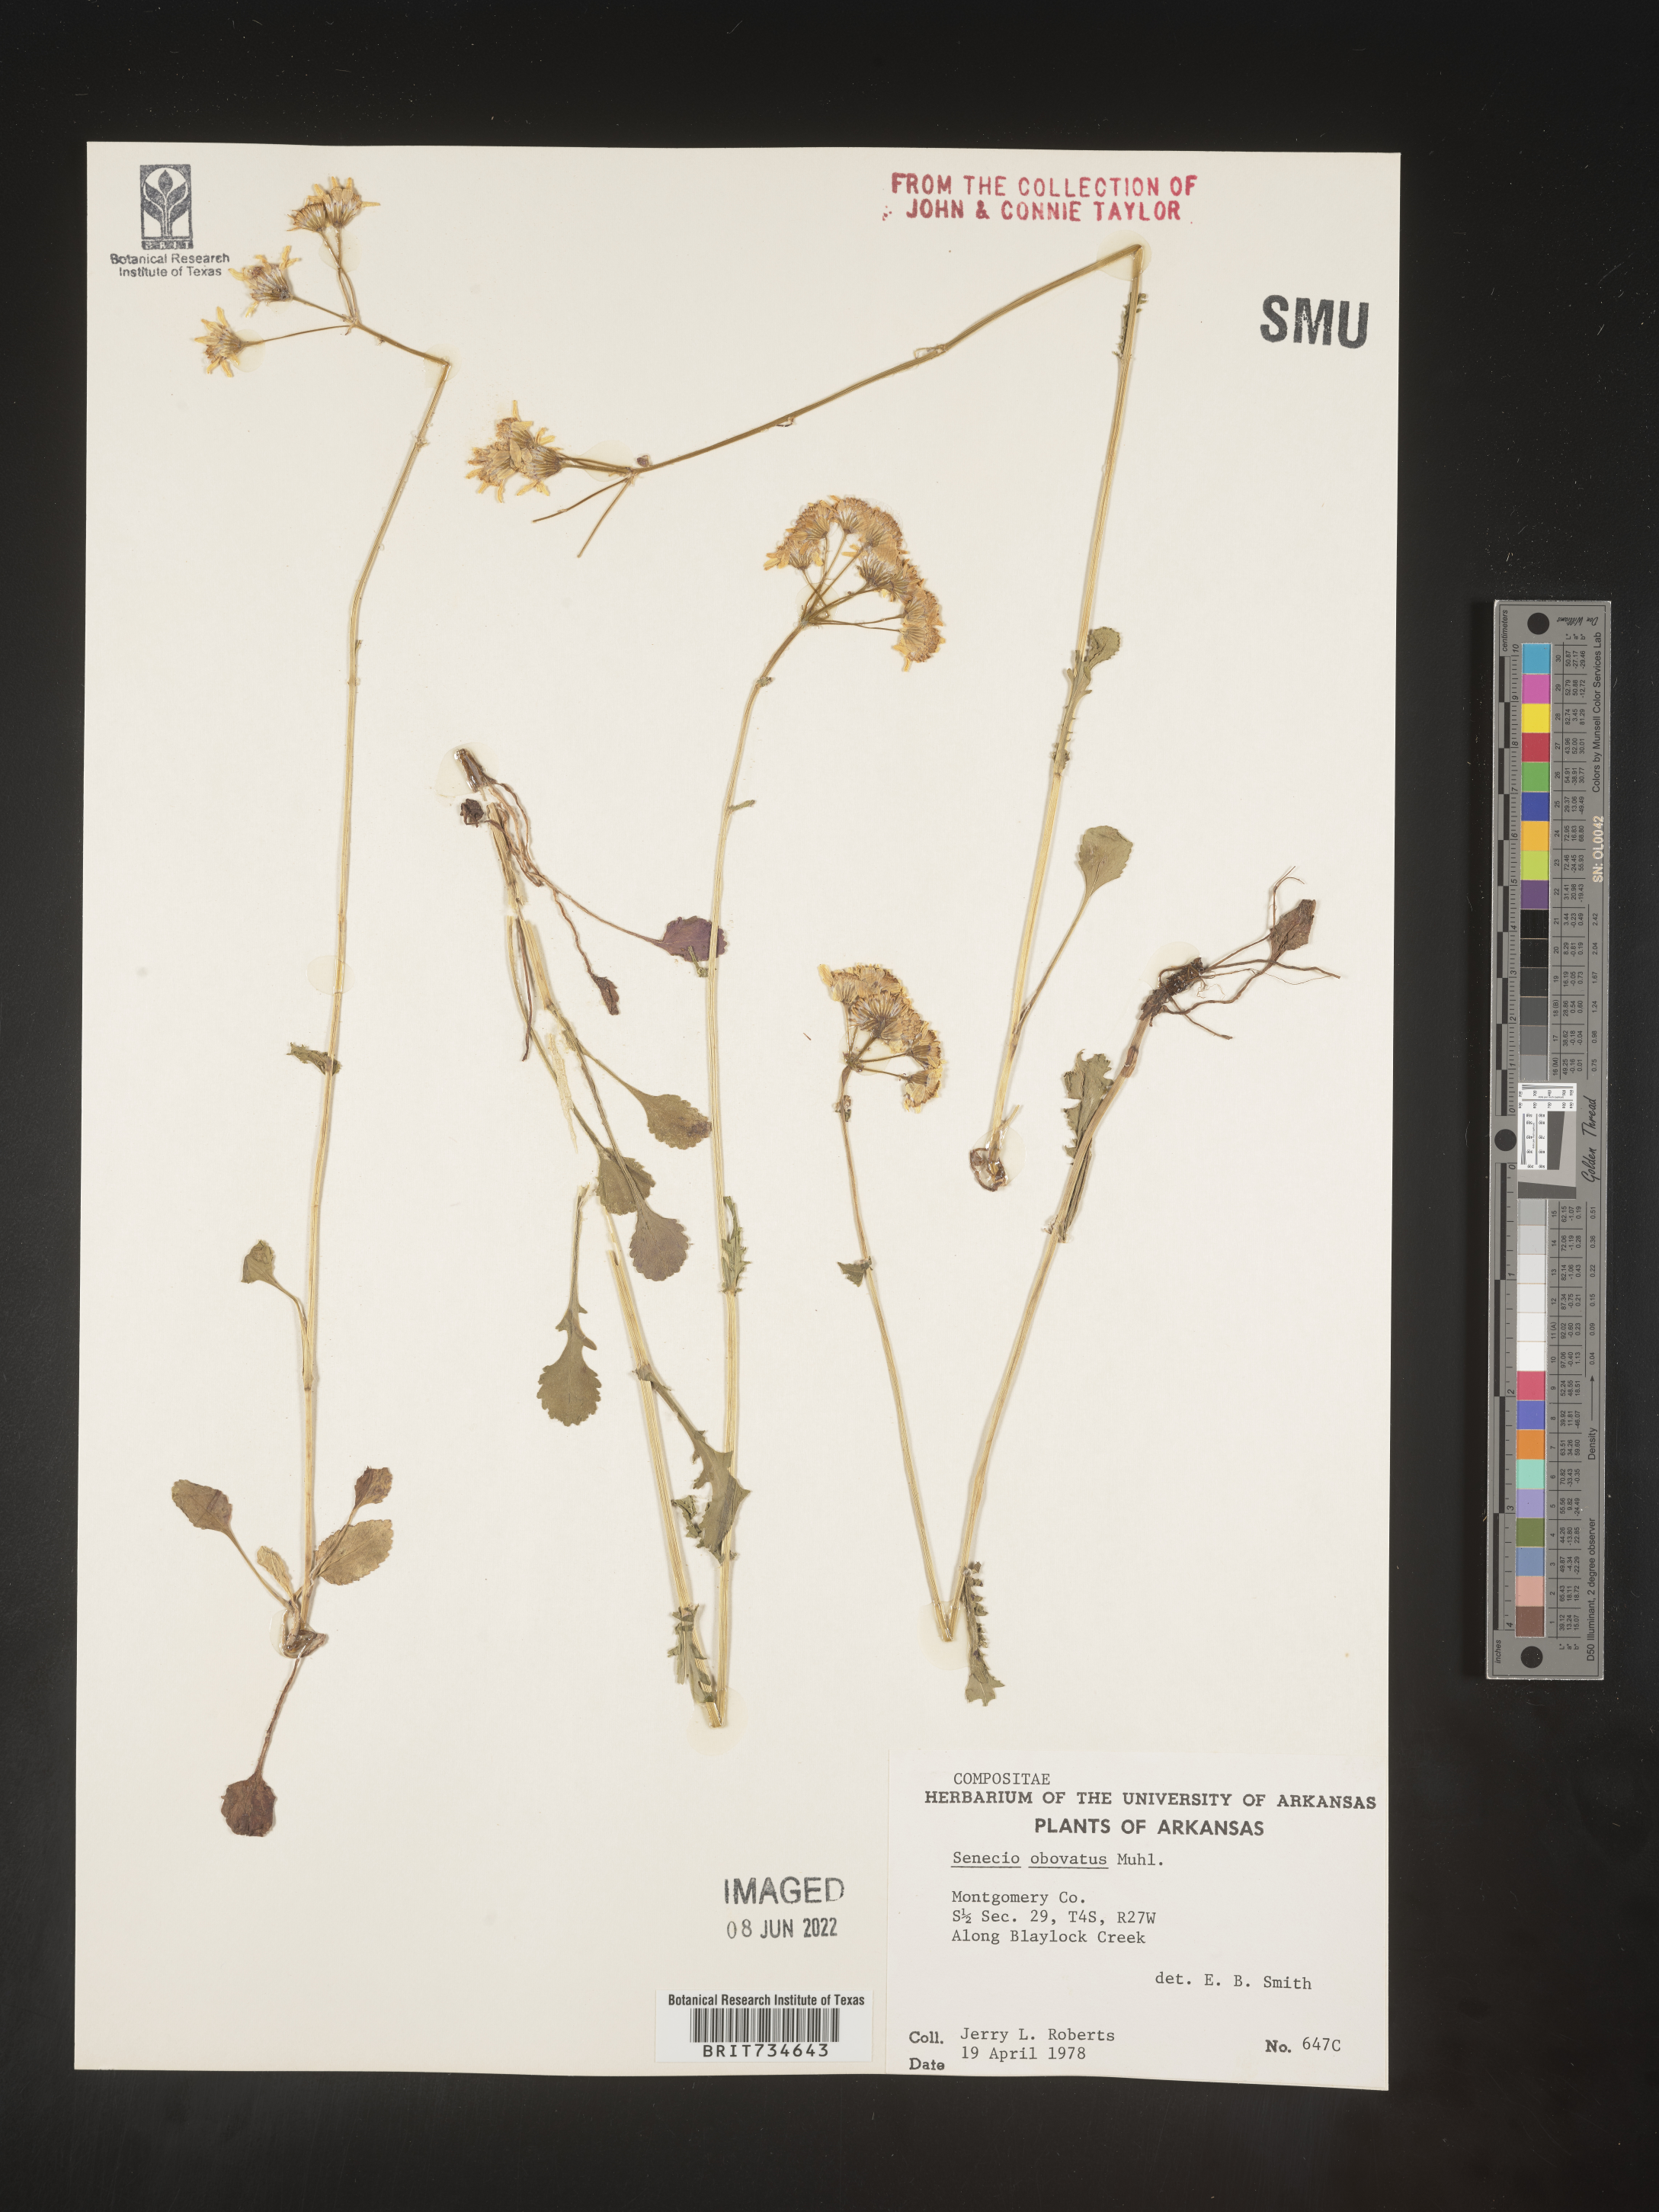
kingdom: Plantae
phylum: Tracheophyta
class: Magnoliopsida
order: Asterales
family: Asteraceae
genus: Packera
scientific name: Packera obovata
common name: Round-leaf ragwort
